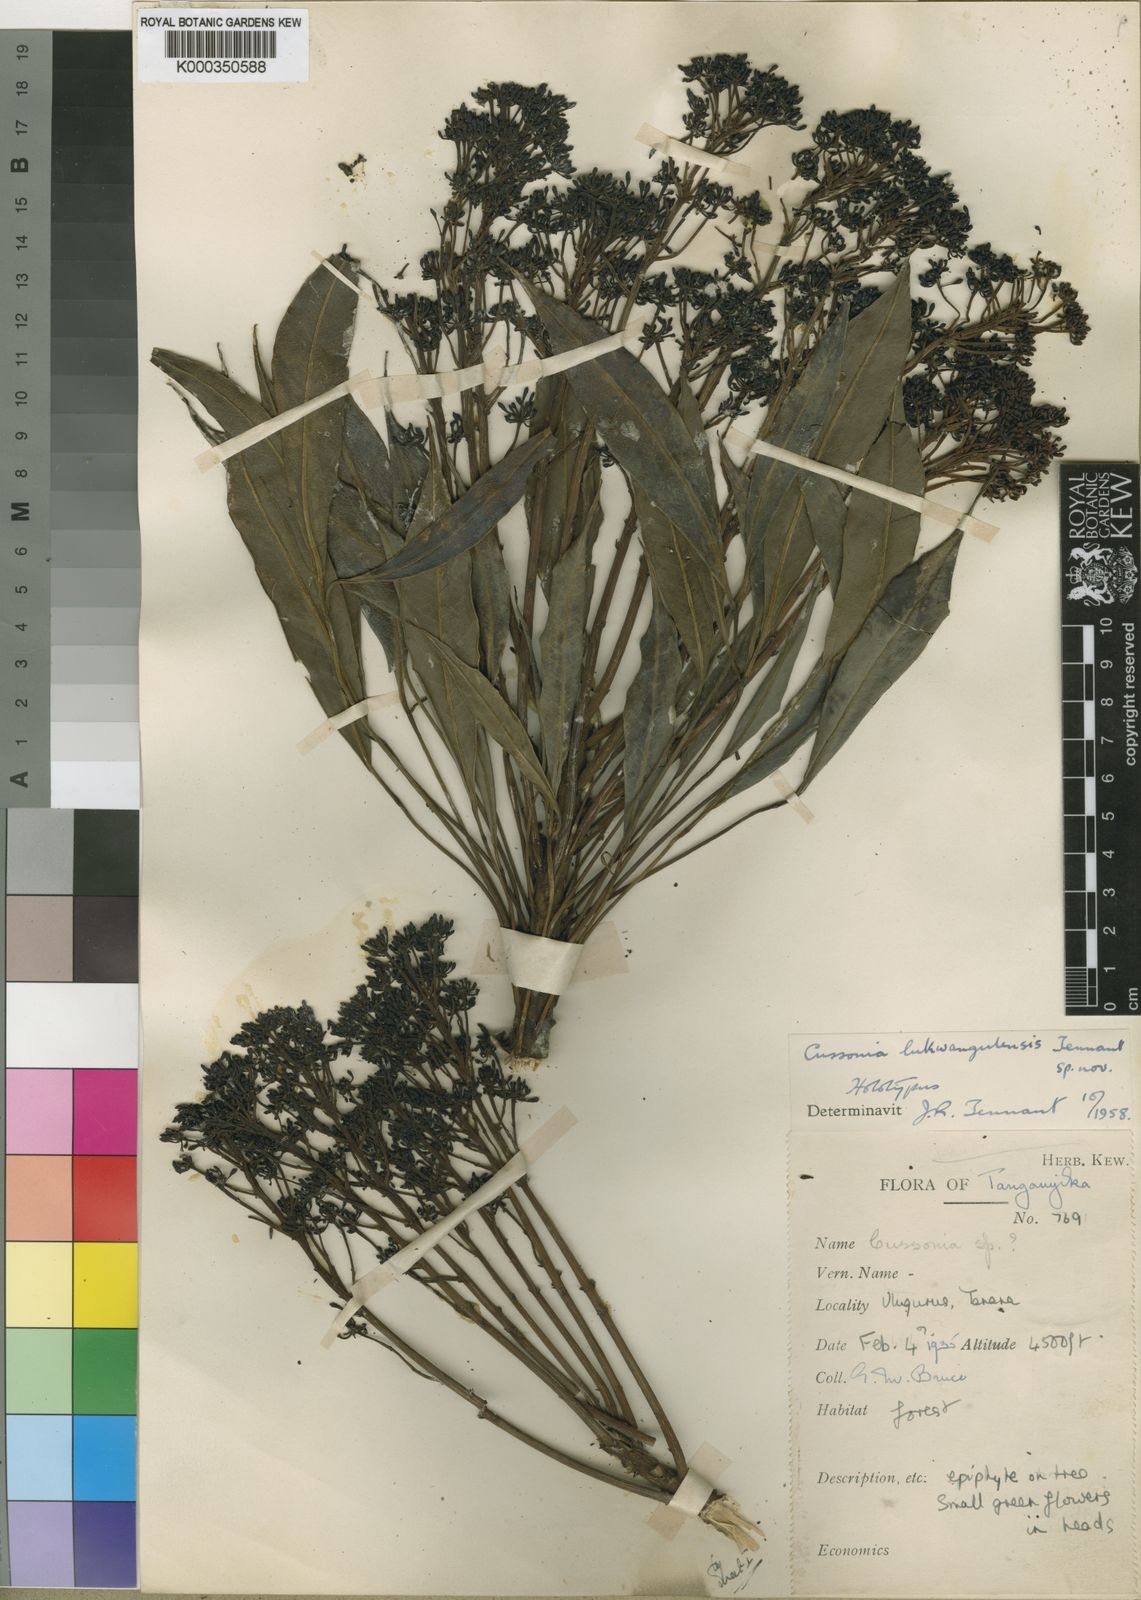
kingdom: Plantae
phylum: Tracheophyta
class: Magnoliopsida
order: Apiales
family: Araliaceae
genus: Neocussonia
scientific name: Neocussonia lukwangulensis
